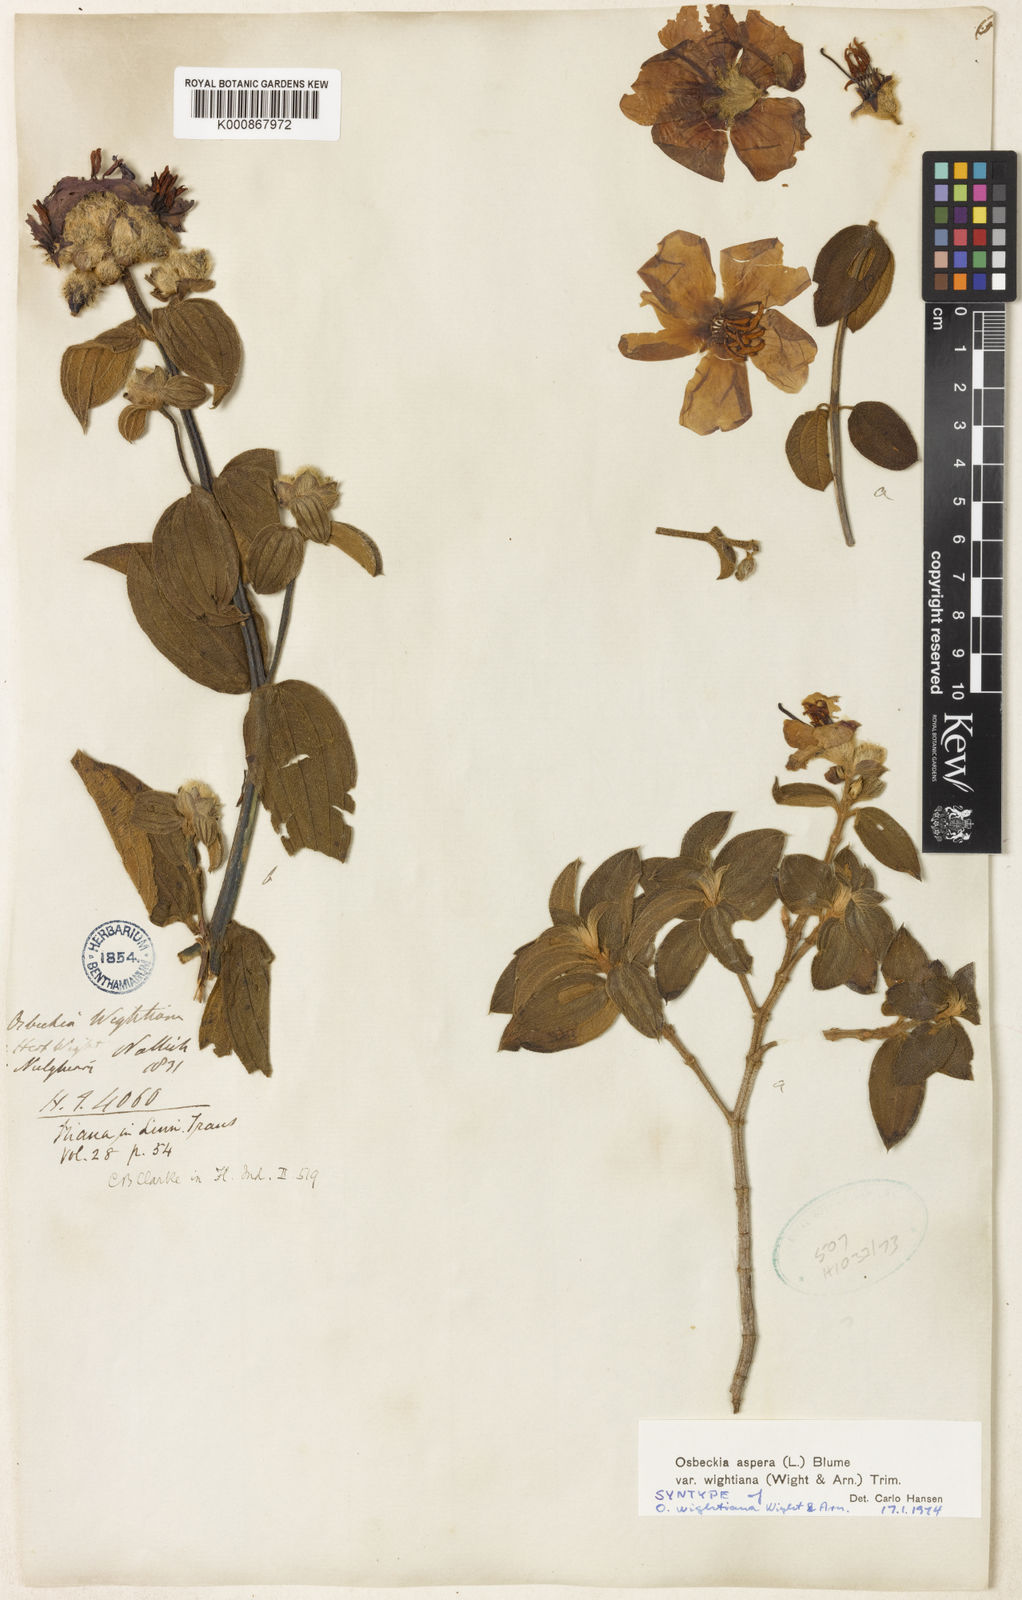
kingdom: Plantae
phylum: Tracheophyta
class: Magnoliopsida
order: Myrtales
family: Melastomataceae
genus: Osbeckia
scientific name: Osbeckia
